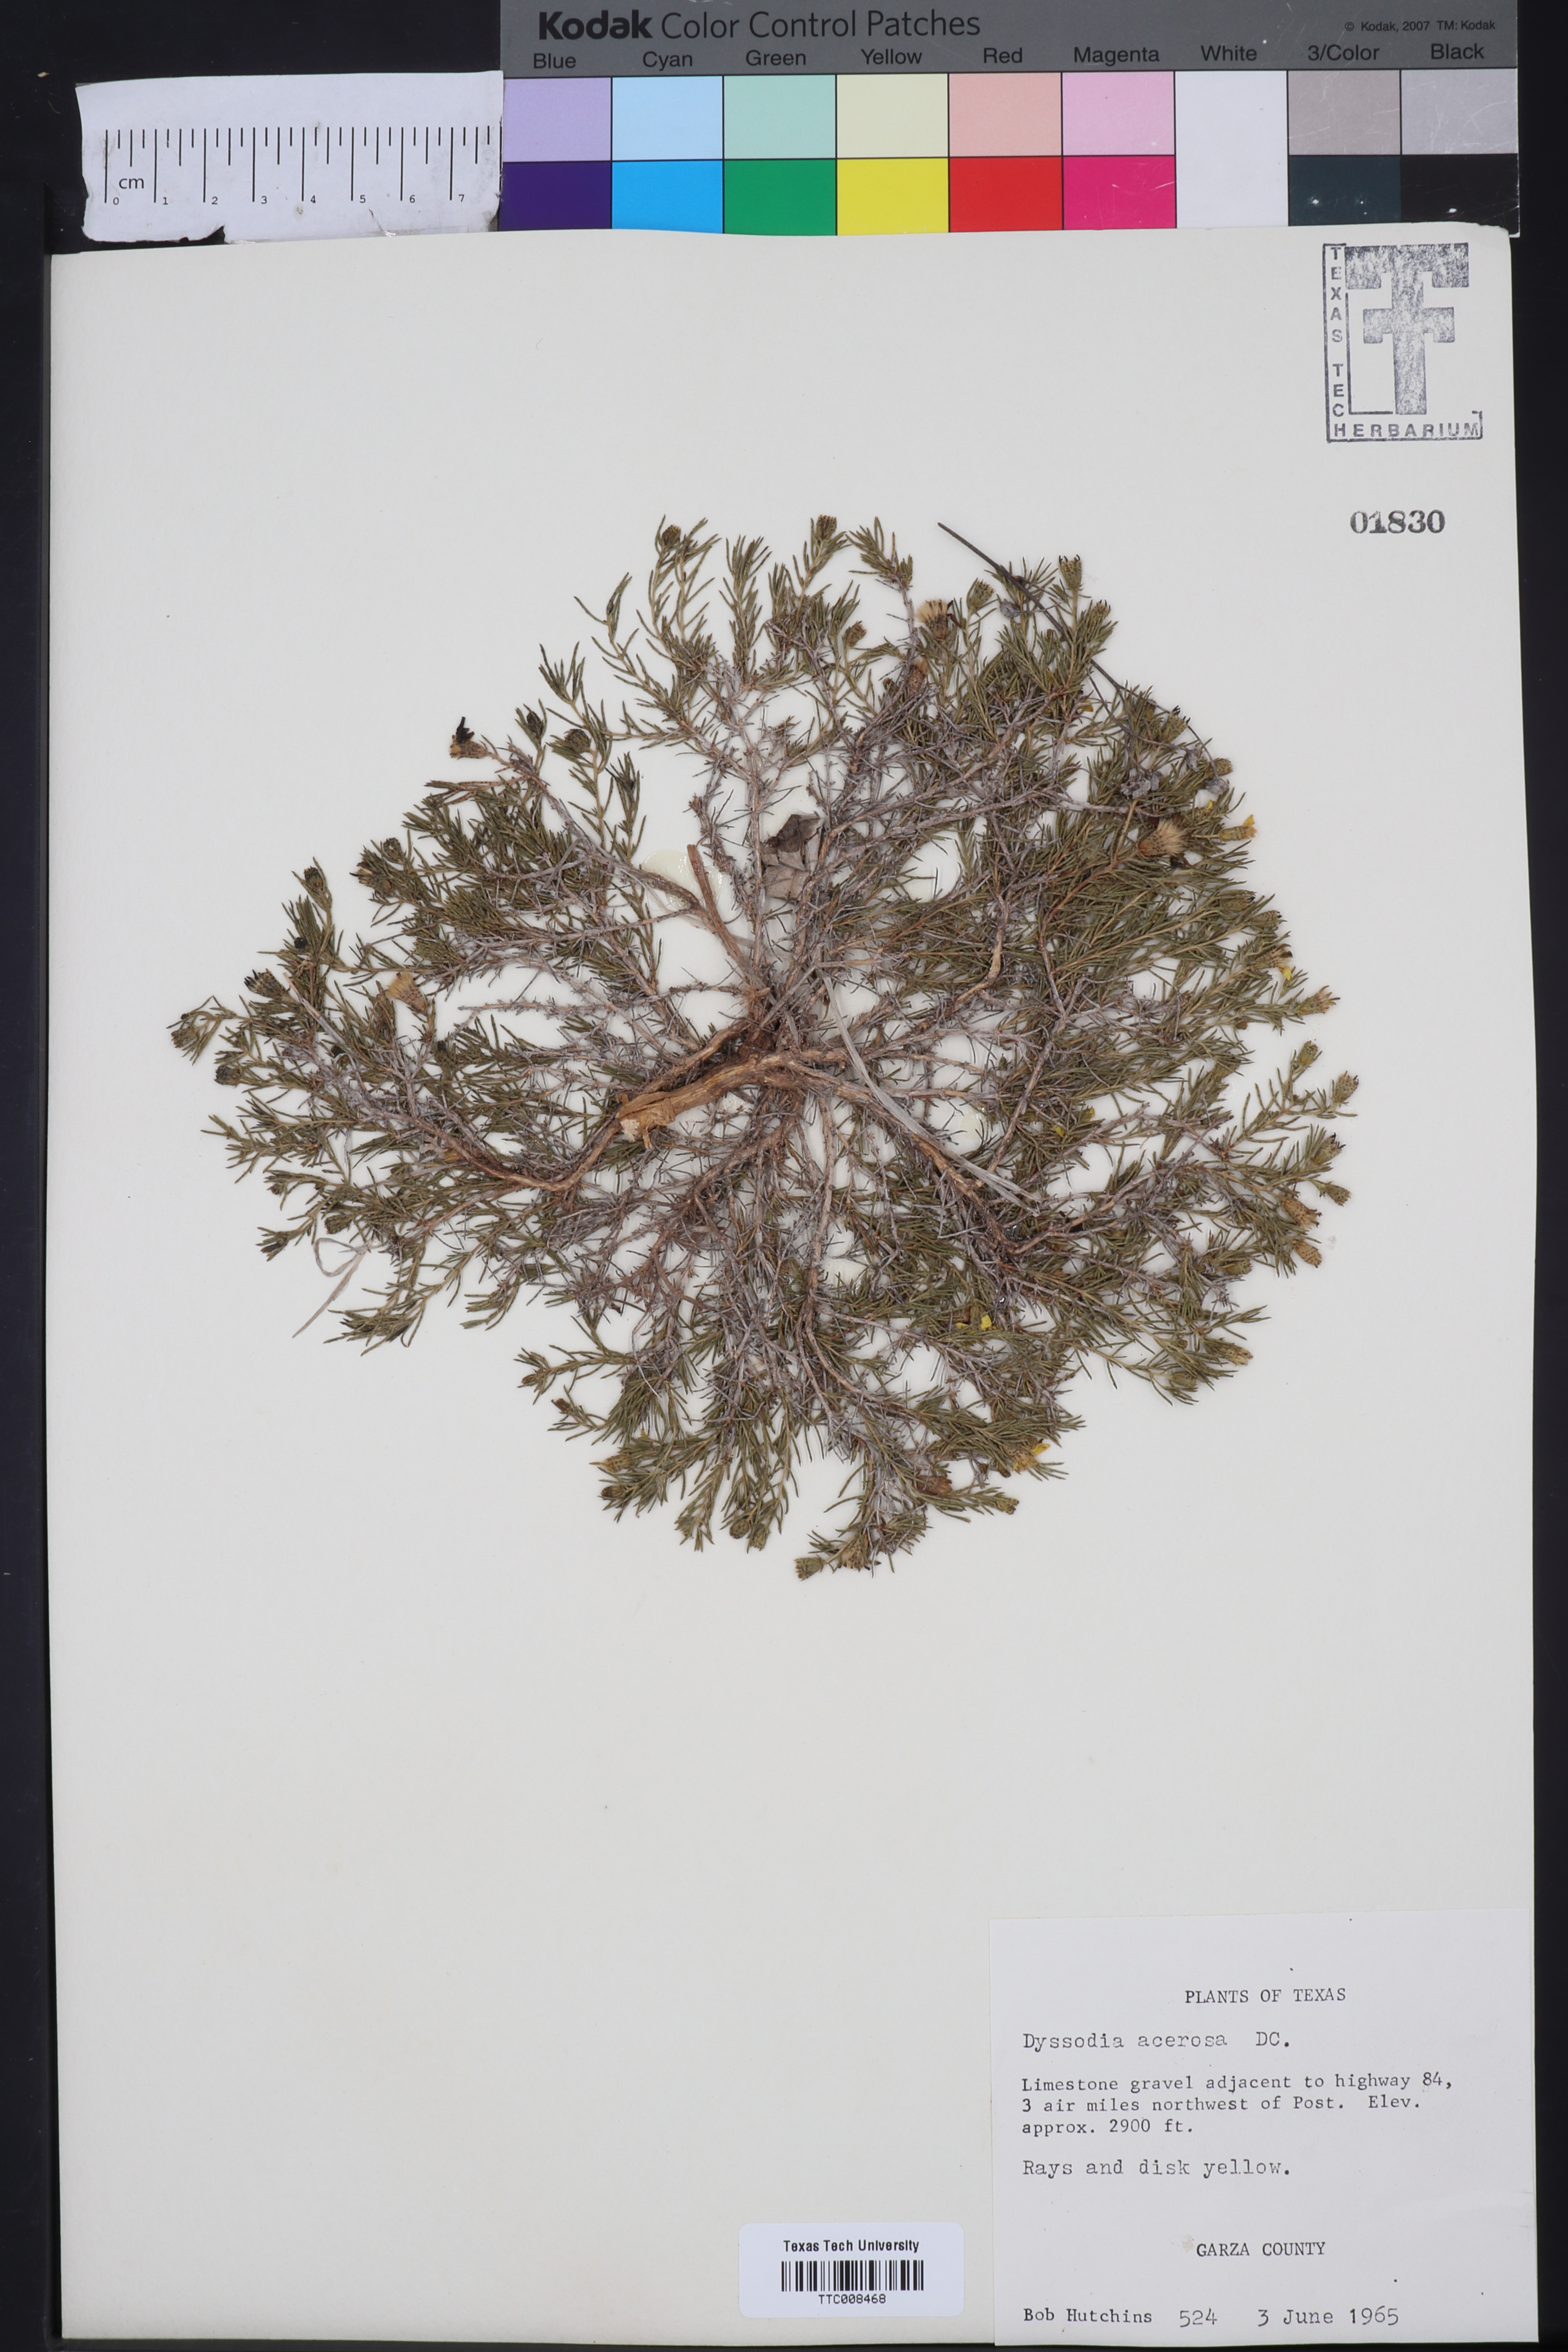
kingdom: Plantae
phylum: Tracheophyta
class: Magnoliopsida
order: Asterales
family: Asteraceae
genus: Thymophylla
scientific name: Thymophylla acerosa
